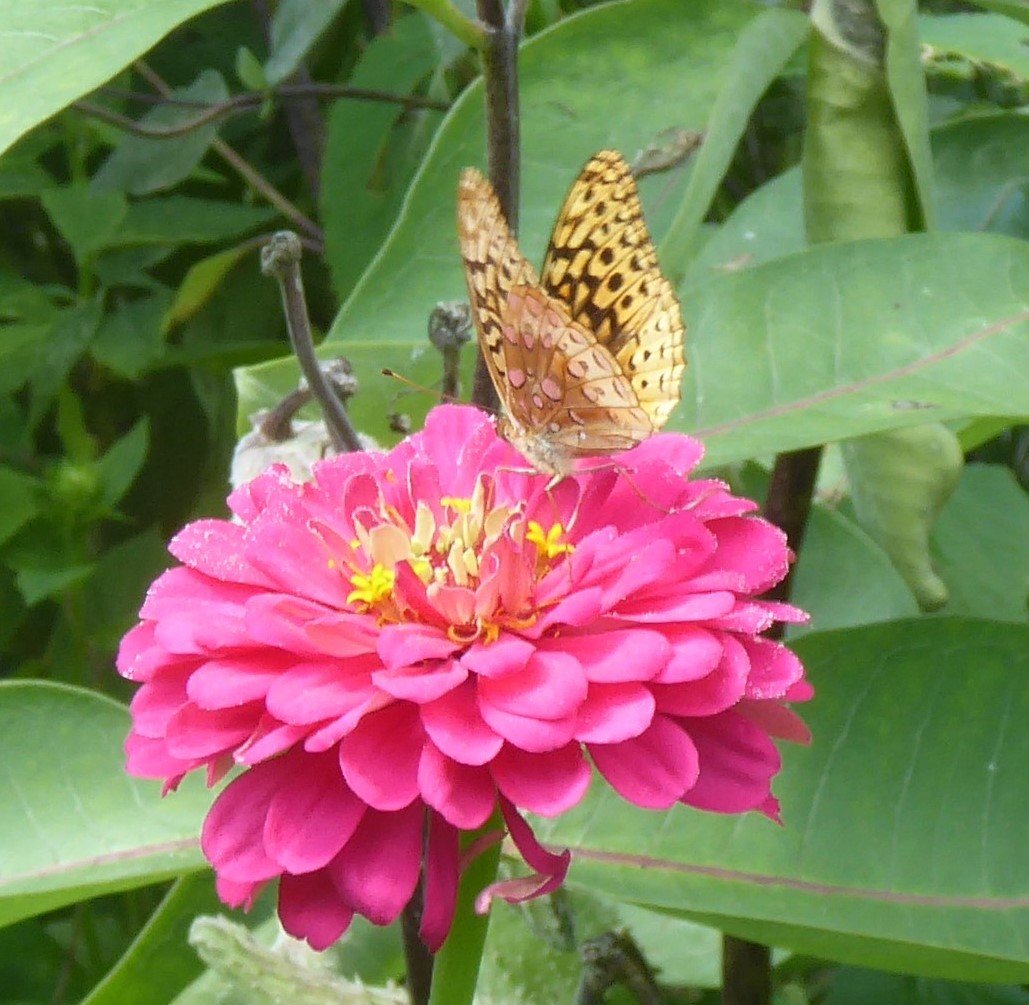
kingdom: Animalia
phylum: Arthropoda
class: Insecta
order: Lepidoptera
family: Nymphalidae
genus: Speyeria
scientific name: Speyeria cybele
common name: Great Spangled Fritillary
